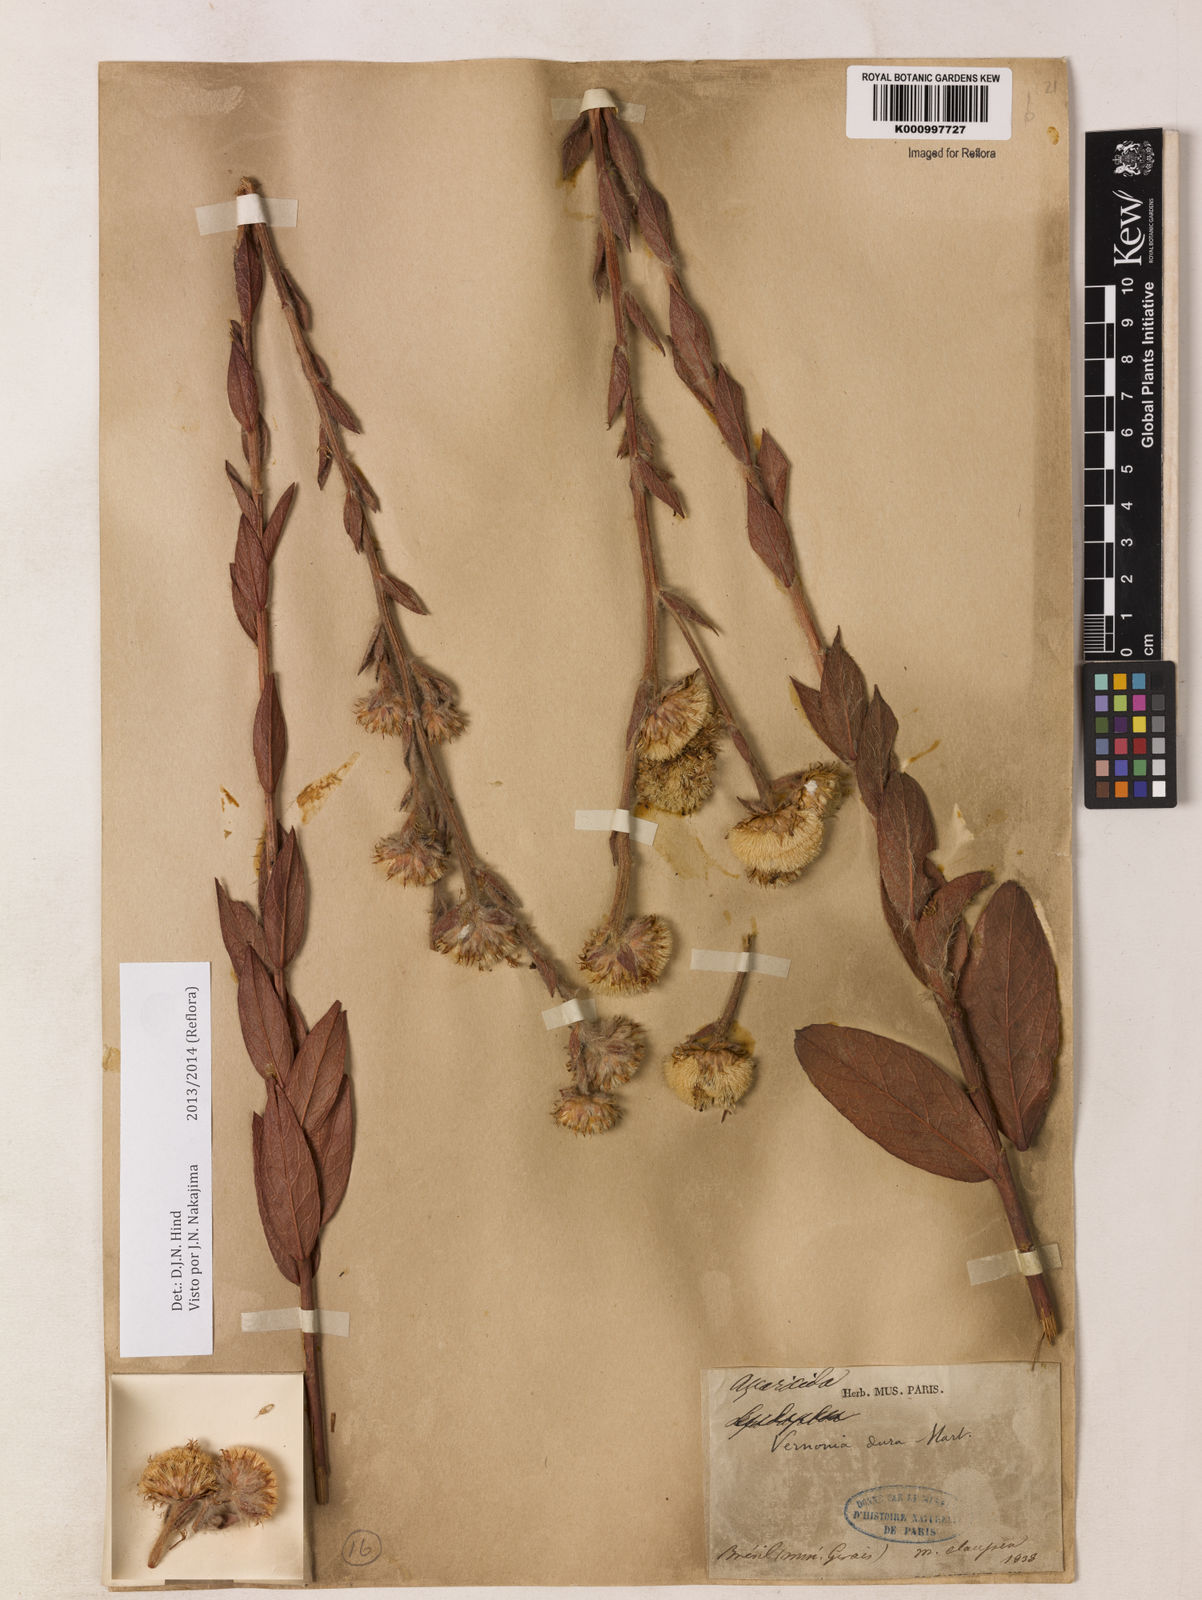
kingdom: Plantae
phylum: Tracheophyta
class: Magnoliopsida
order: Asterales
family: Asteraceae
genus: Lessingianthus
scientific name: Lessingianthus durus
